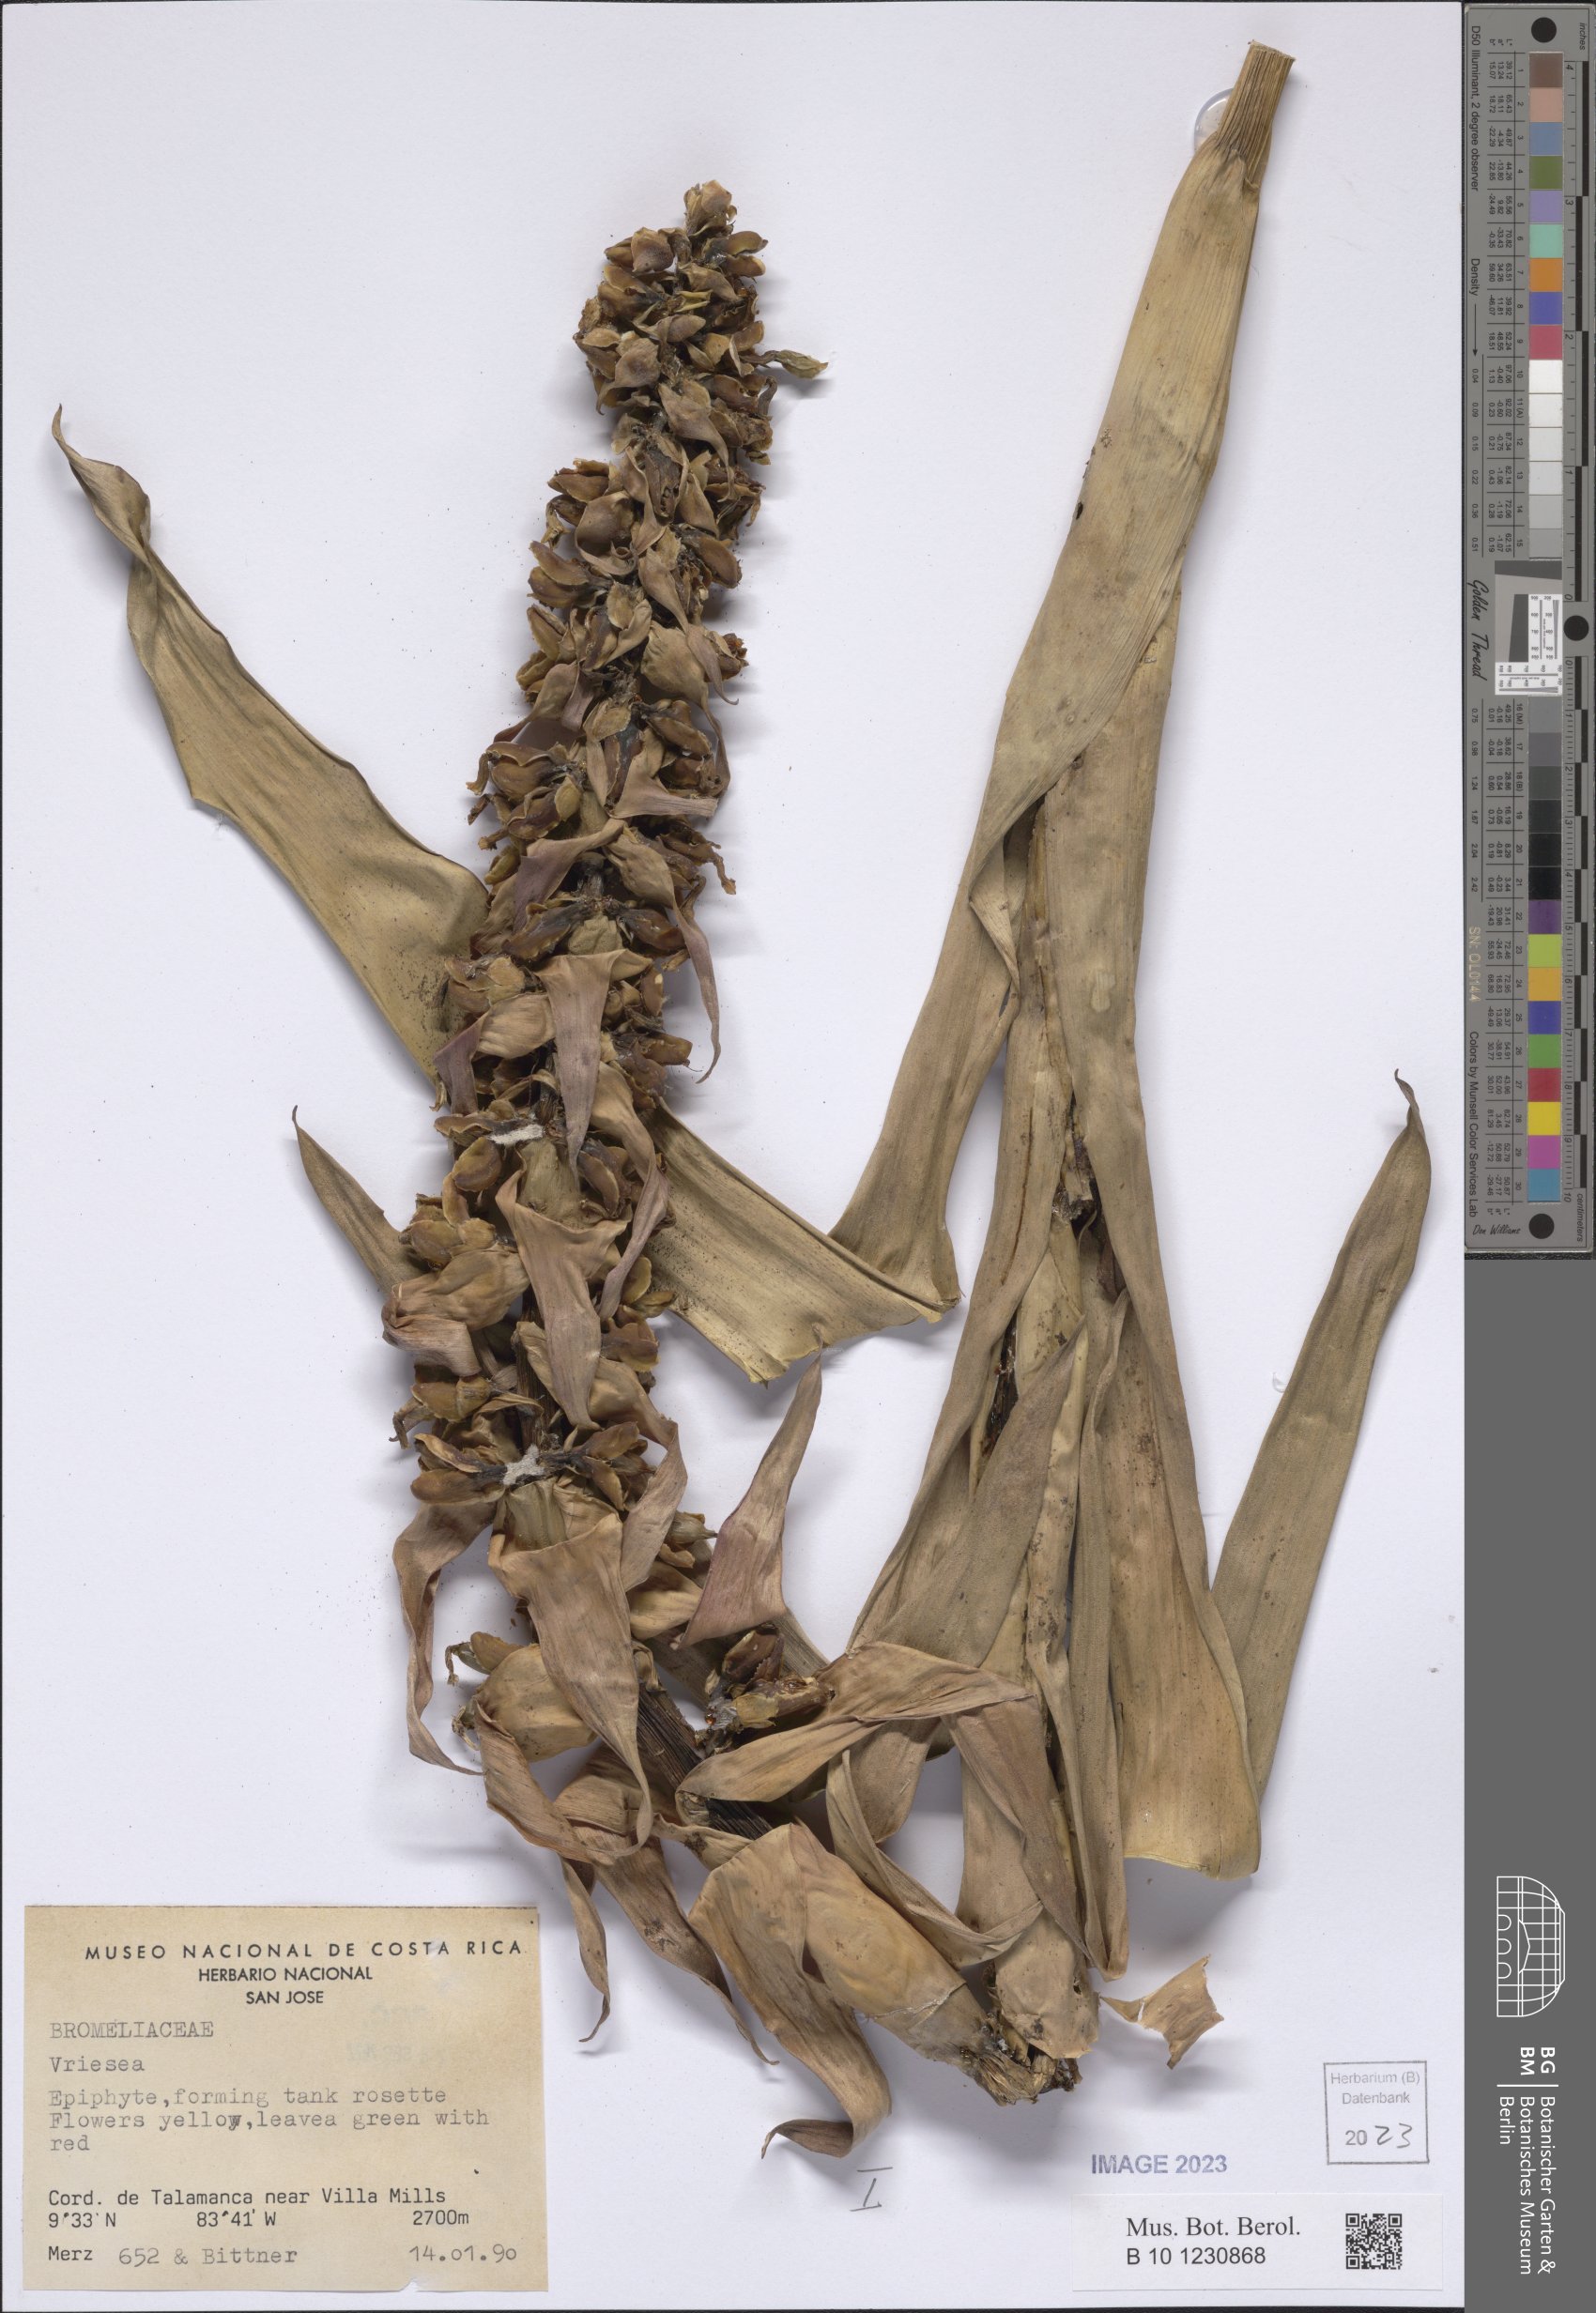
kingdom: Plantae
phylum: Tracheophyta
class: Liliopsida
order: Poales
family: Bromeliaceae
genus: Vriesea
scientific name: Vriesea
